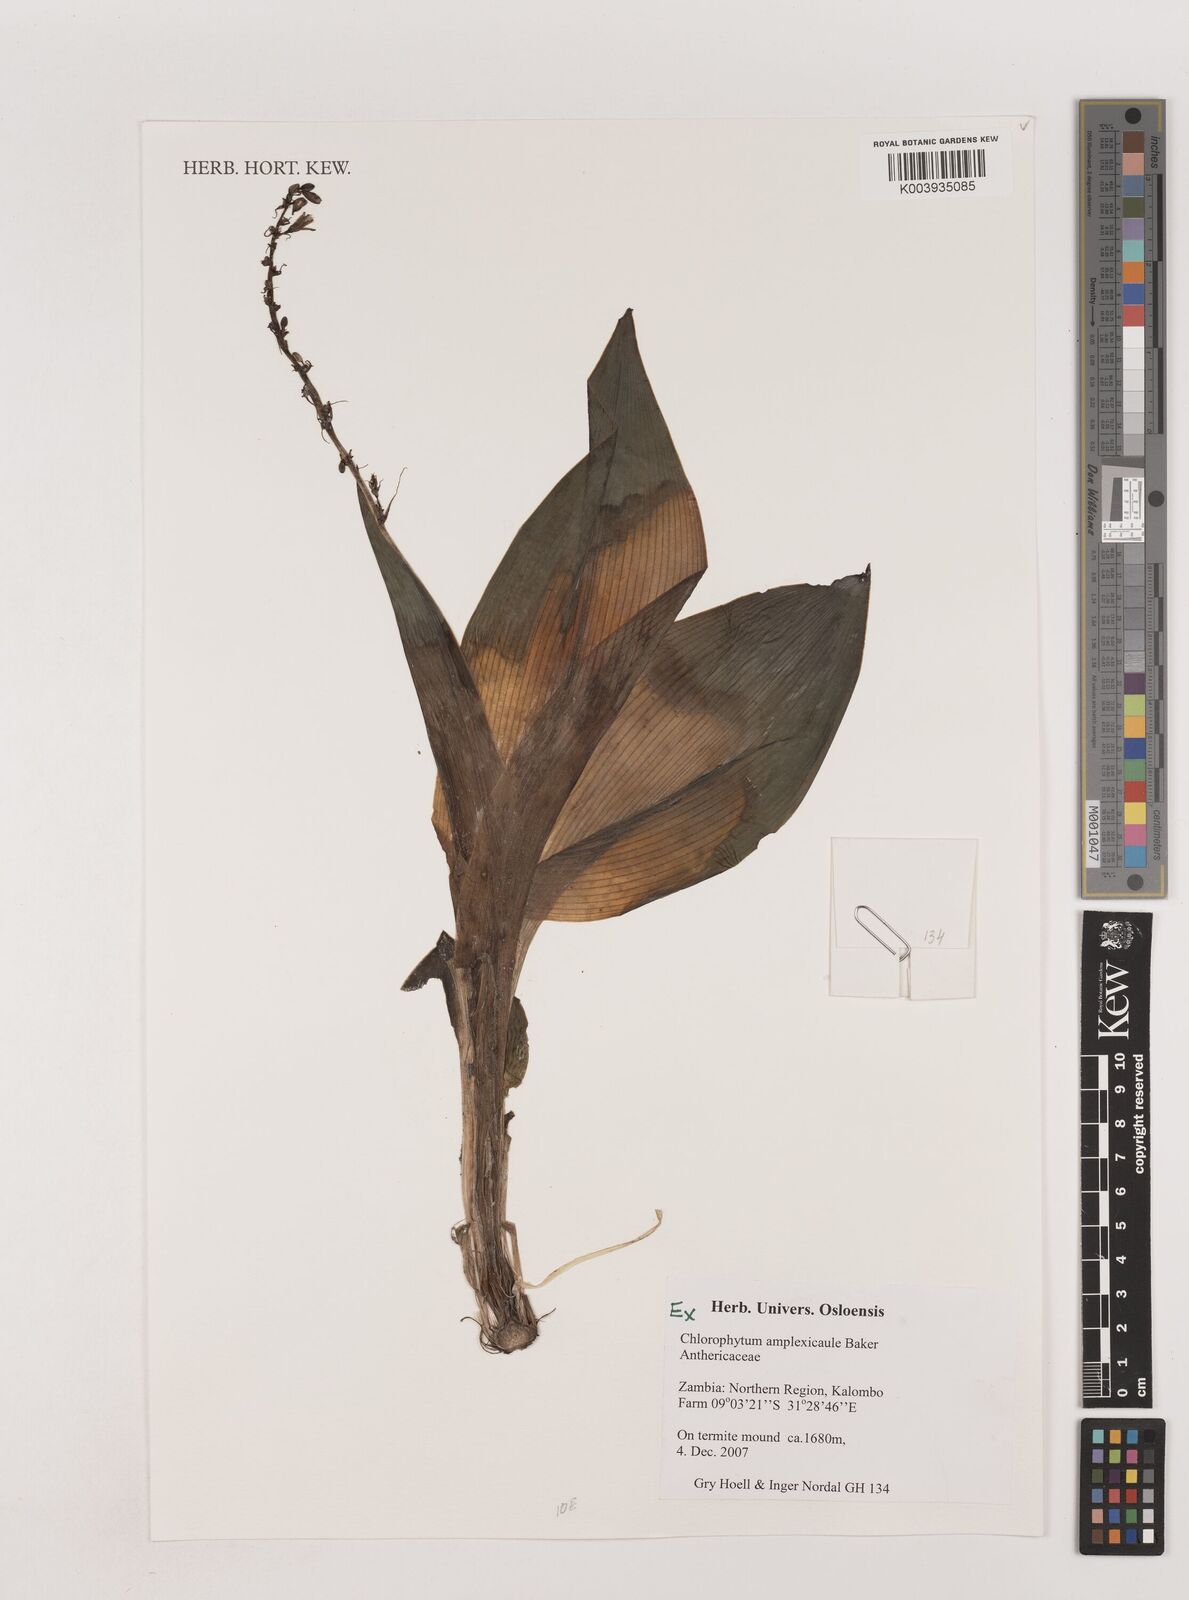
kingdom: Plantae
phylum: Tracheophyta
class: Liliopsida
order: Asparagales
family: Asparagaceae
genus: Chlorophytum
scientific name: Chlorophytum blepharophyllum
